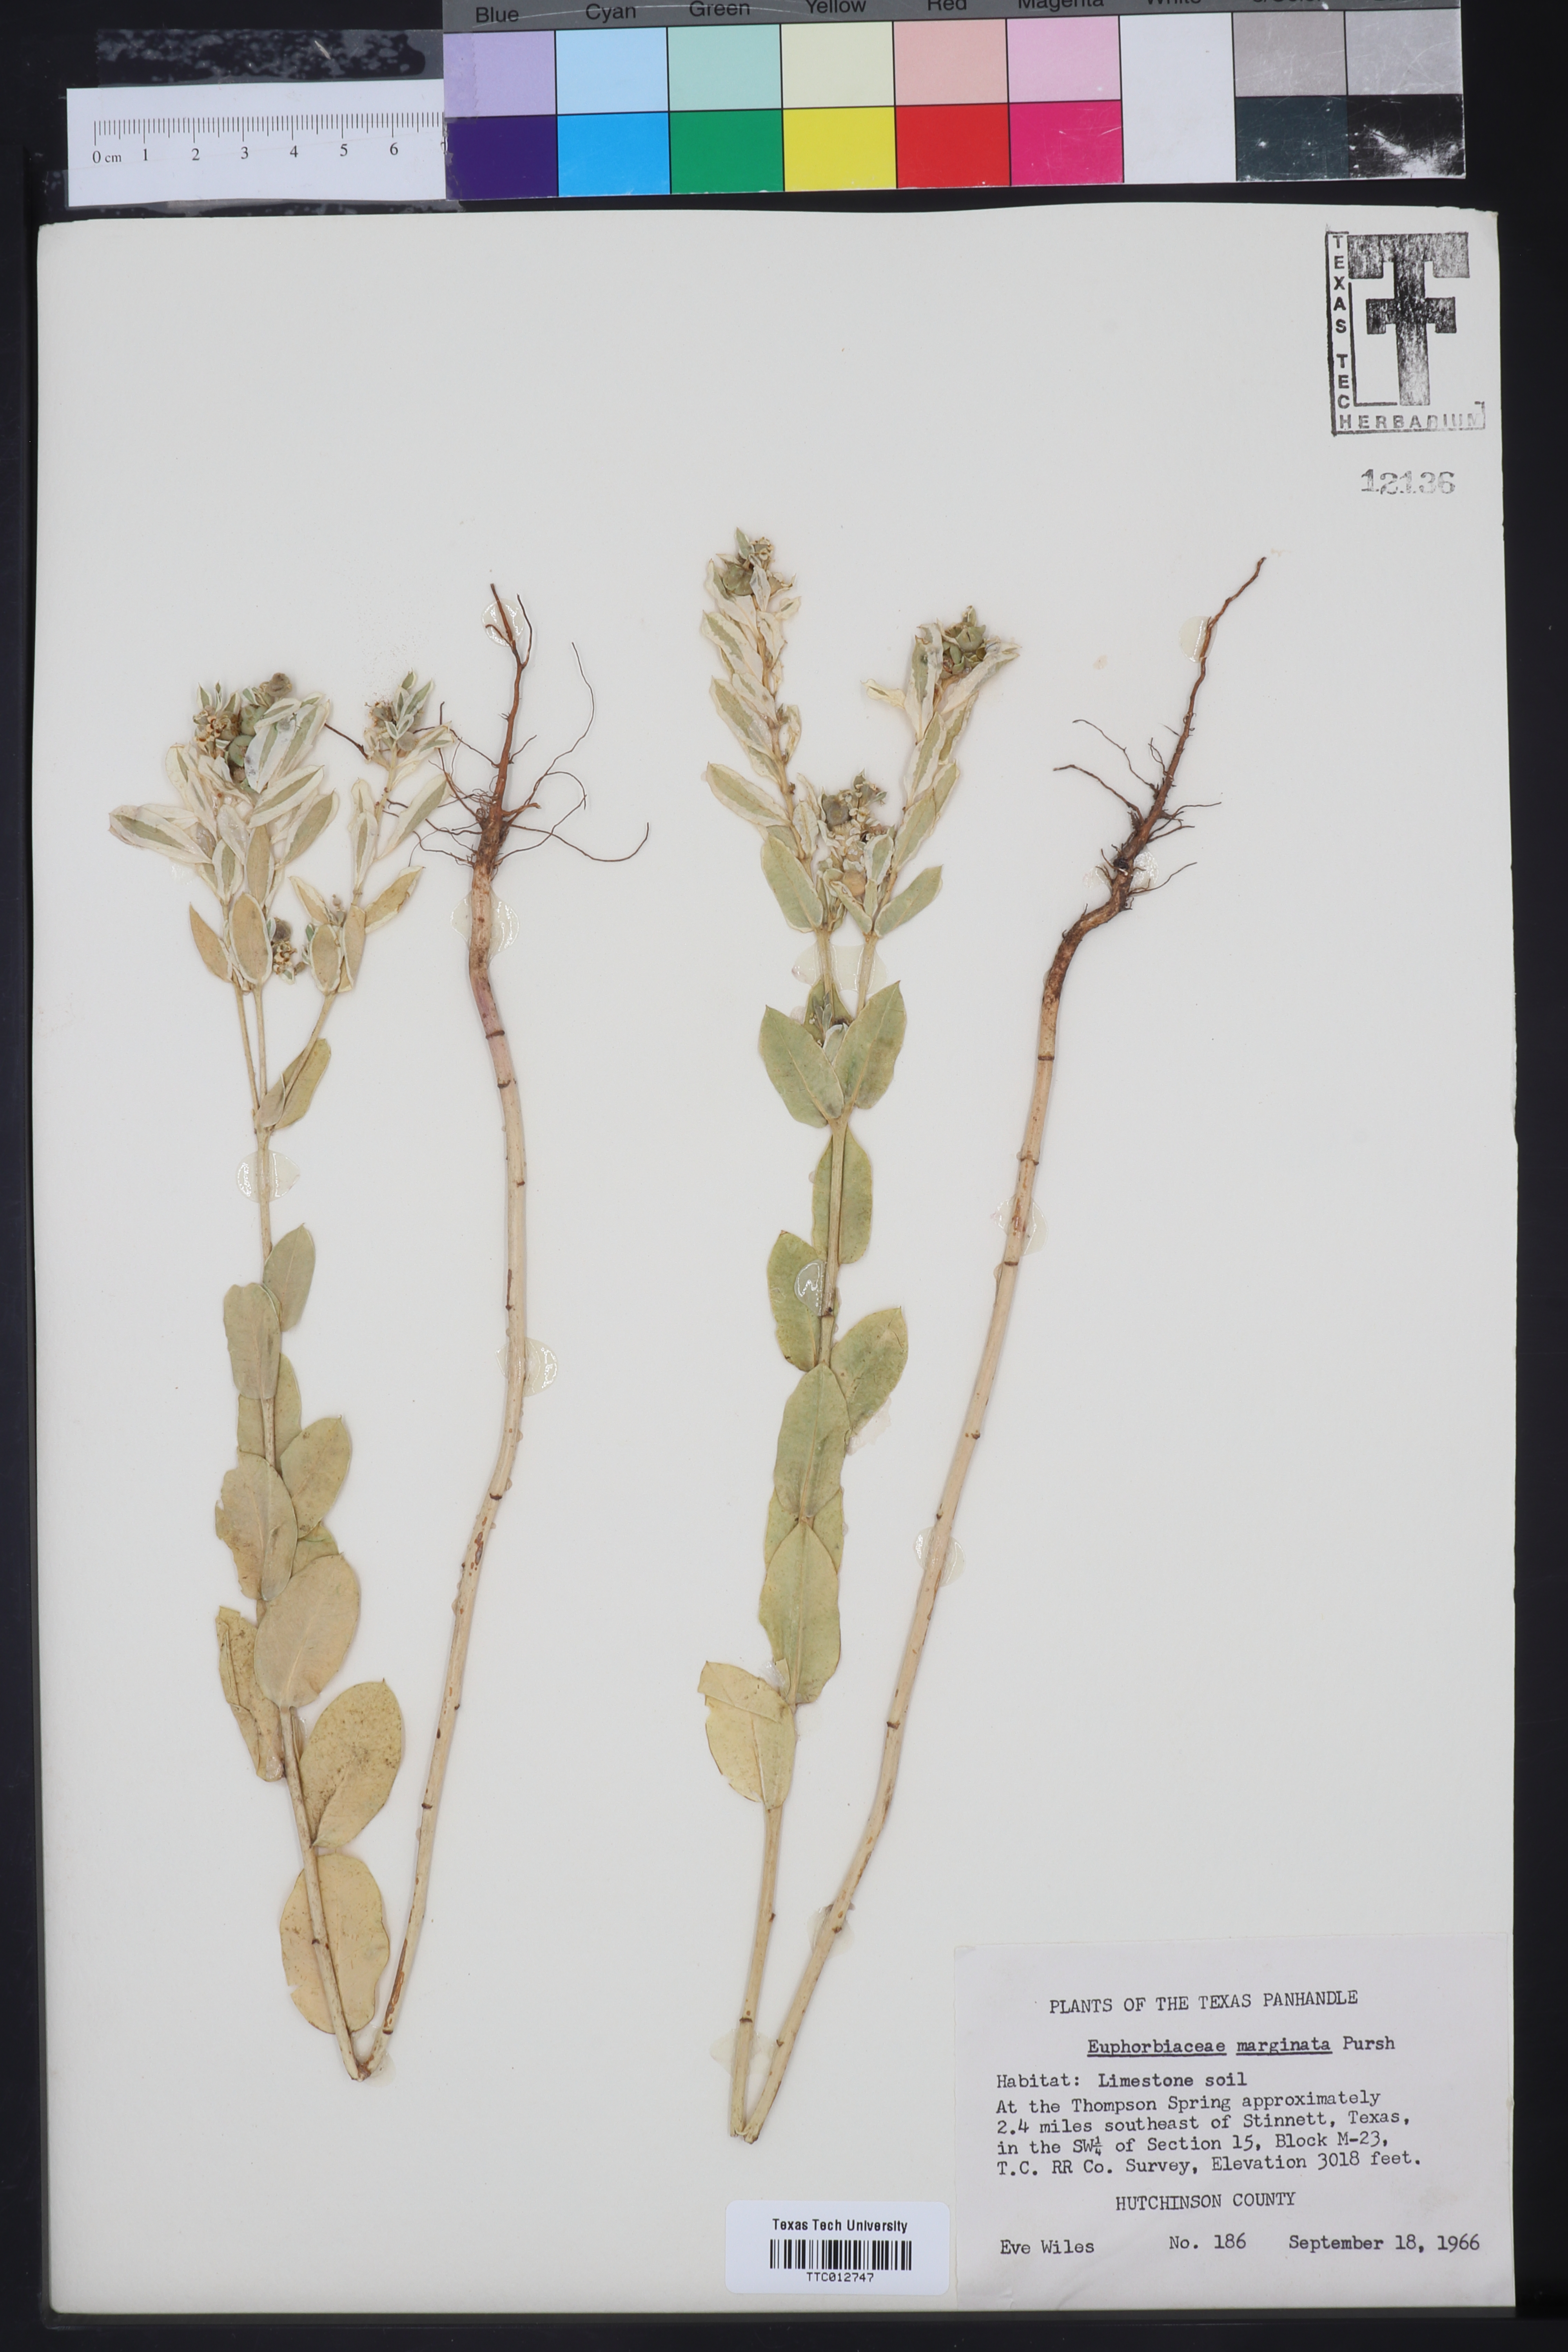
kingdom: Plantae
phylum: Tracheophyta
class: Magnoliopsida
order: Malpighiales
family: Euphorbiaceae
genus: Euphorbia
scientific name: Euphorbia marginata
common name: Ghostweed
